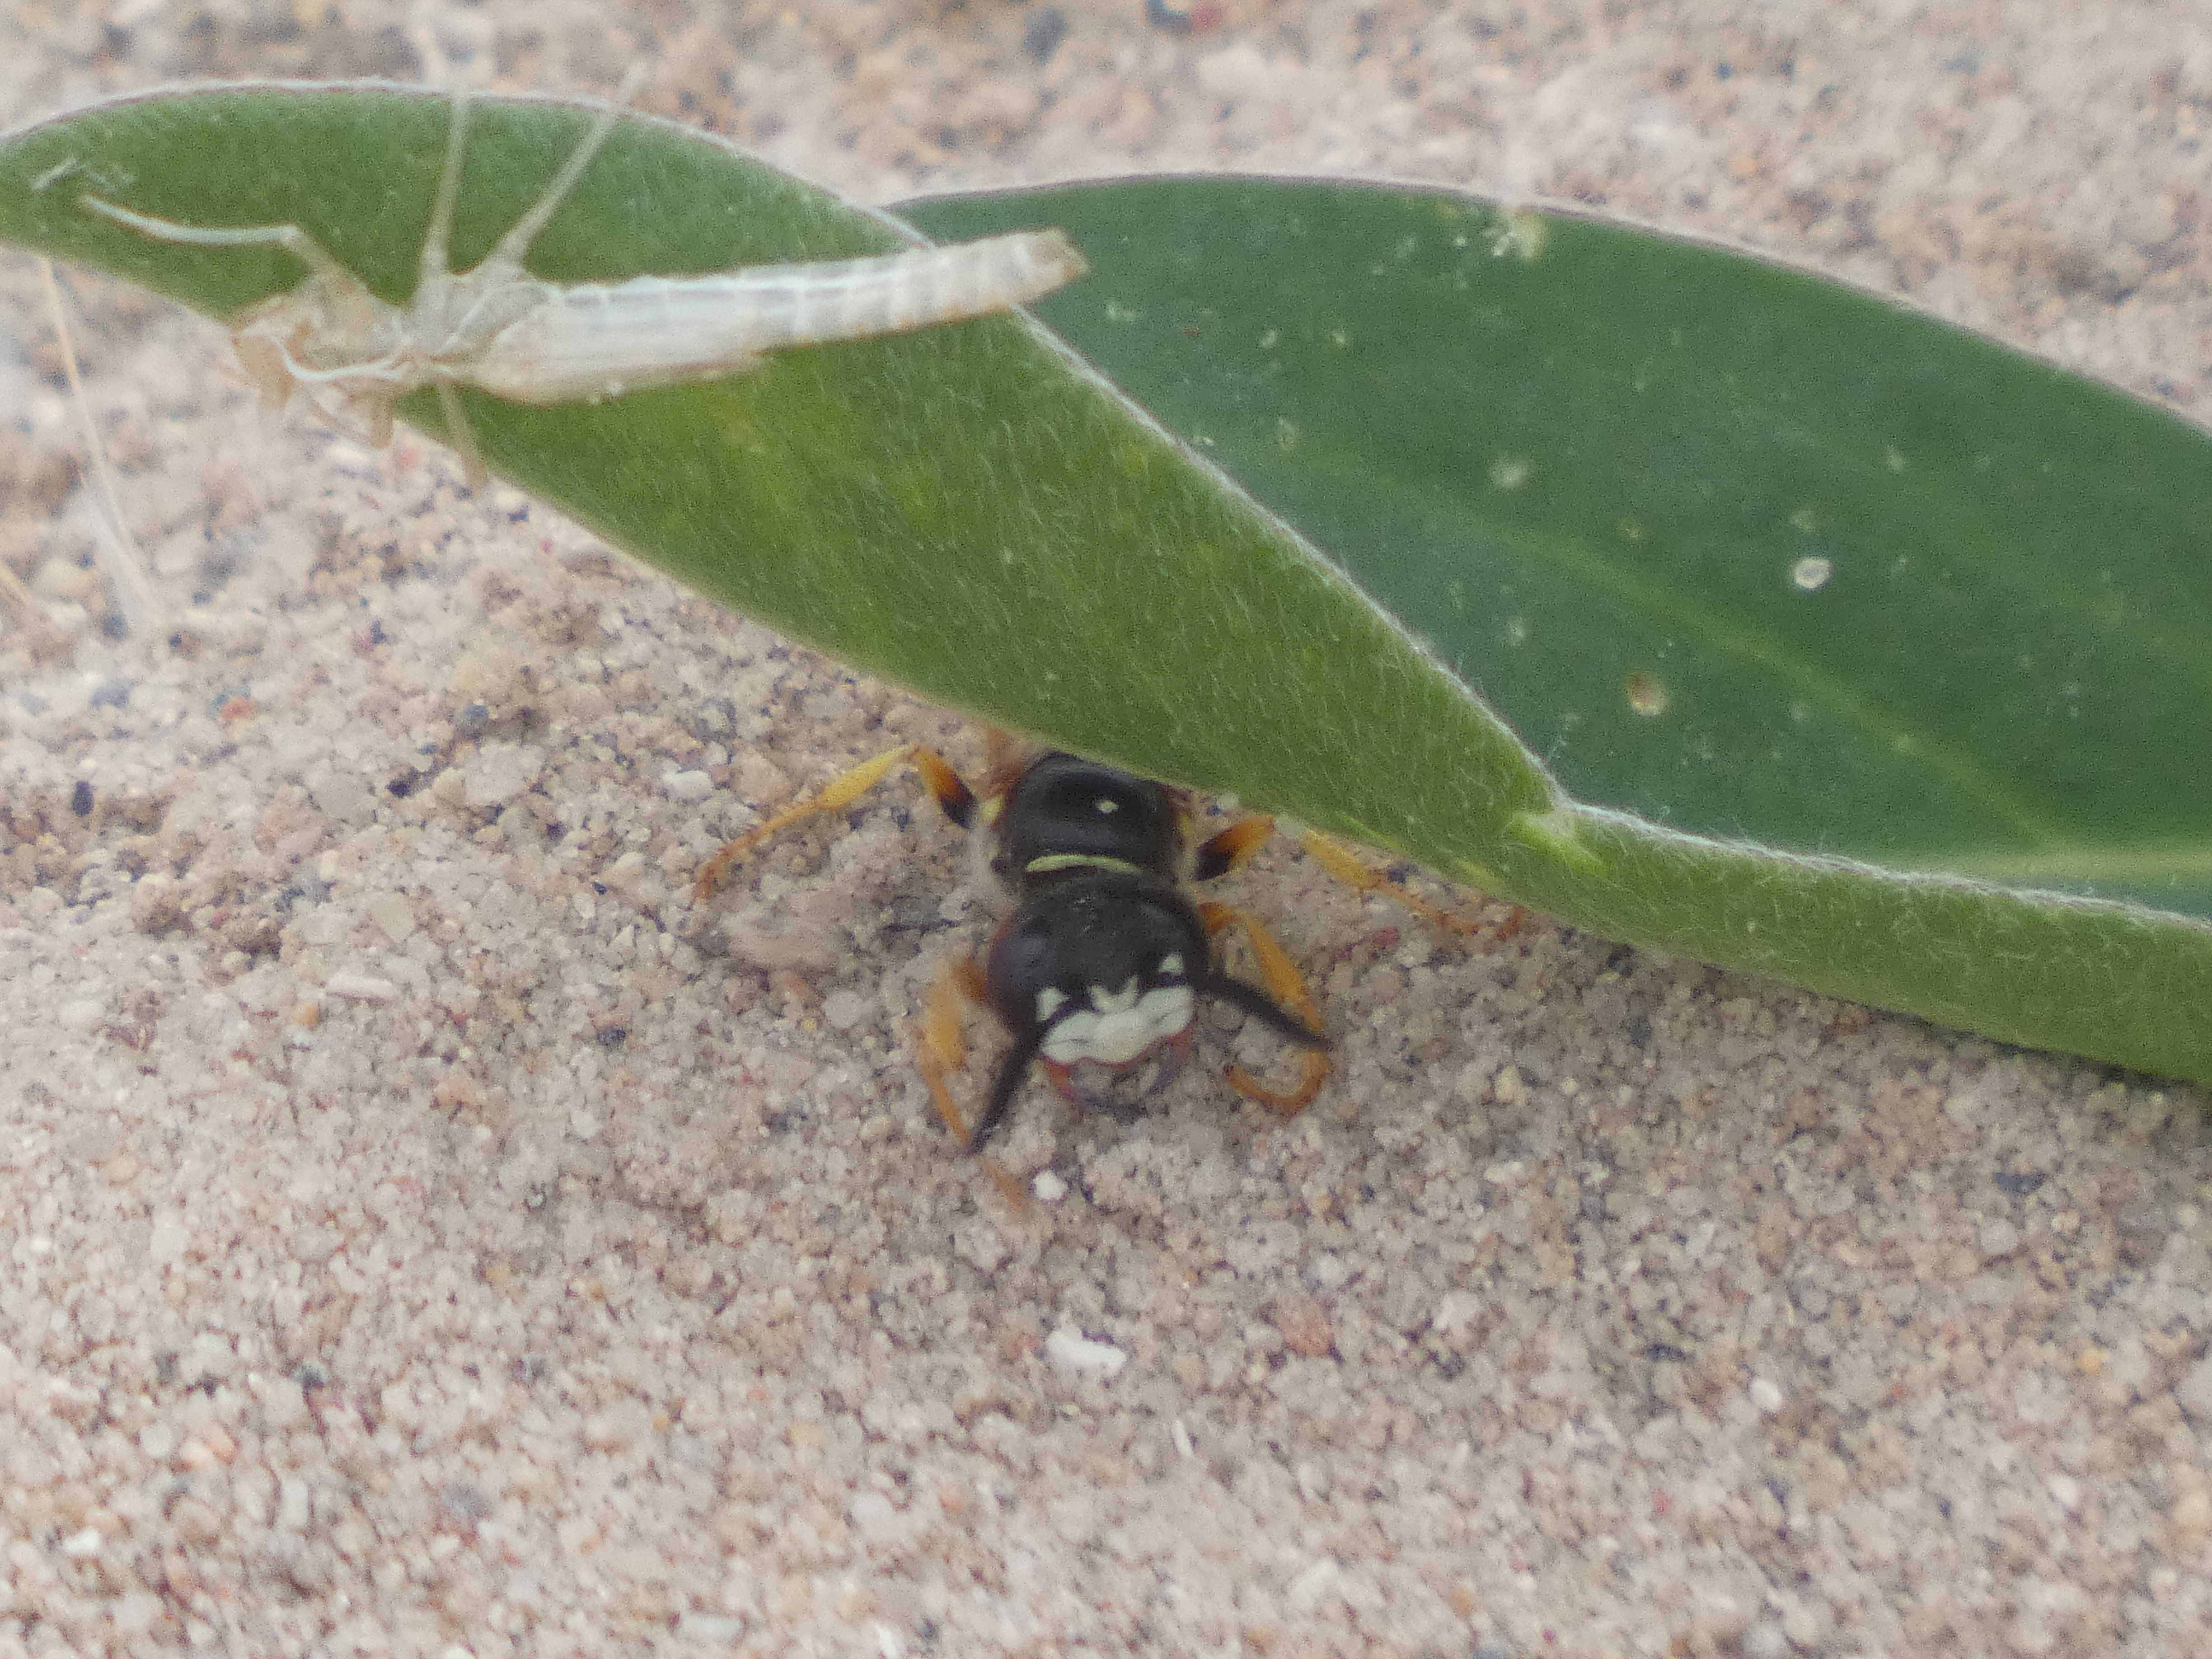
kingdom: Animalia
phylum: Arthropoda
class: Insecta
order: Hymenoptera
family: Crabronidae
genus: Philanthus
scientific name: Philanthus triangulum
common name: Biulv
